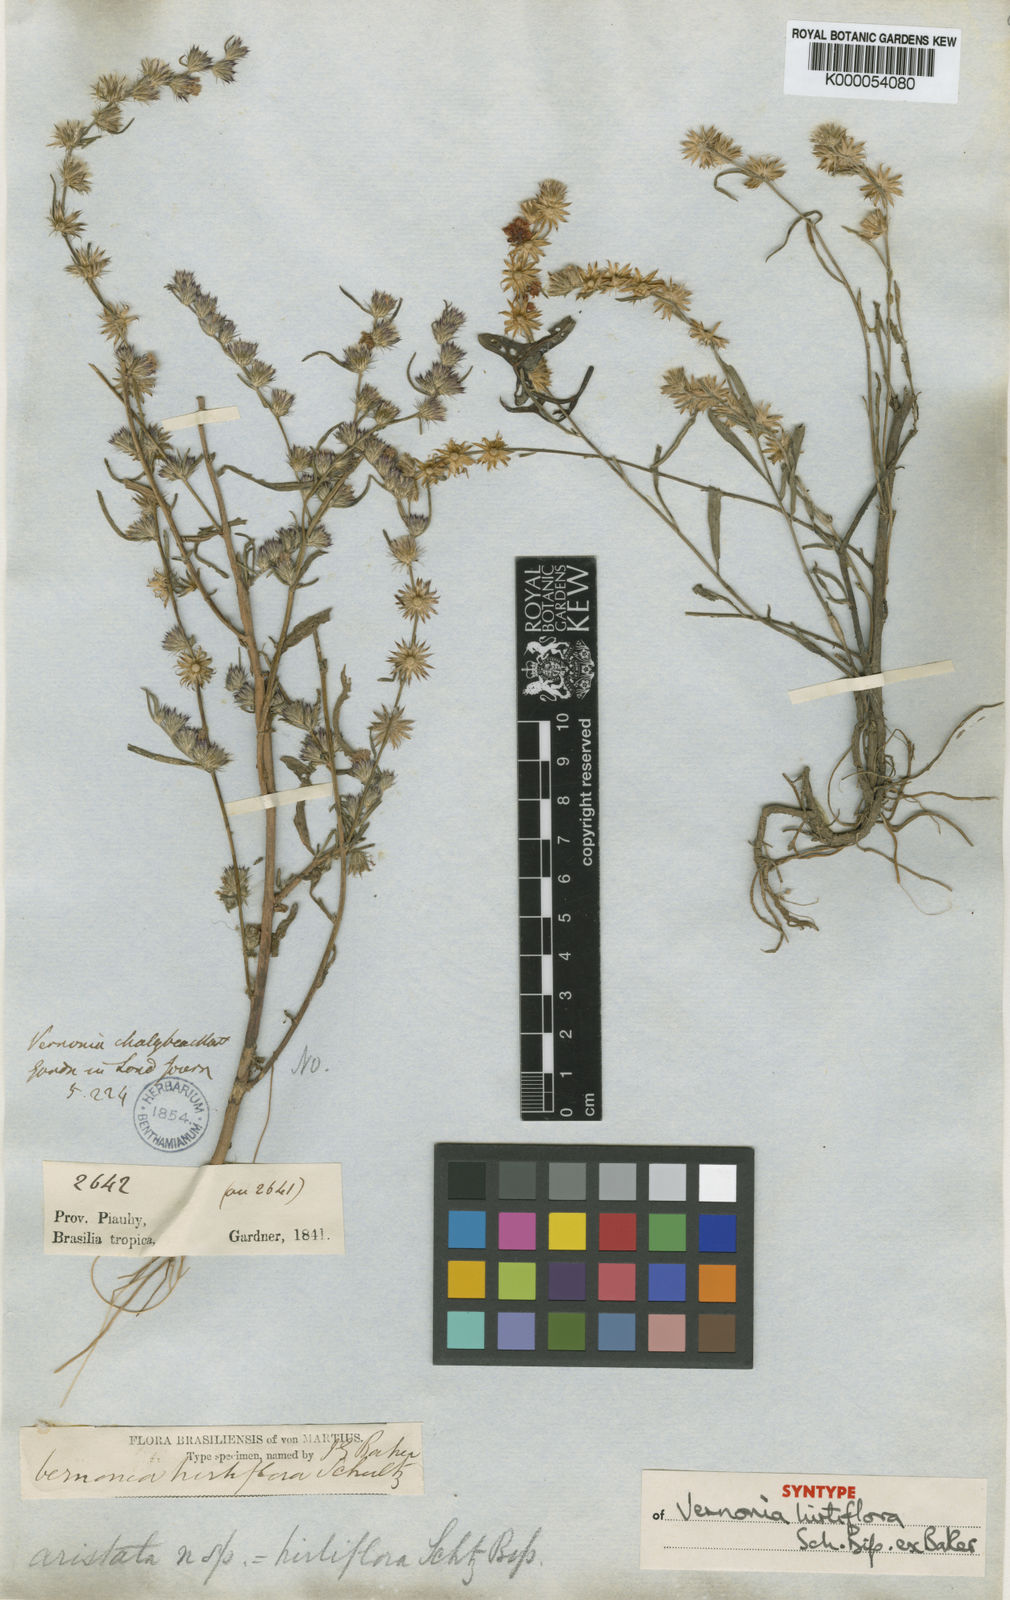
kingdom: Plantae
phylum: Tracheophyta
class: Magnoliopsida
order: Asterales
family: Asteraceae
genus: Lepidaploa
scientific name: Lepidaploa remotiflora
